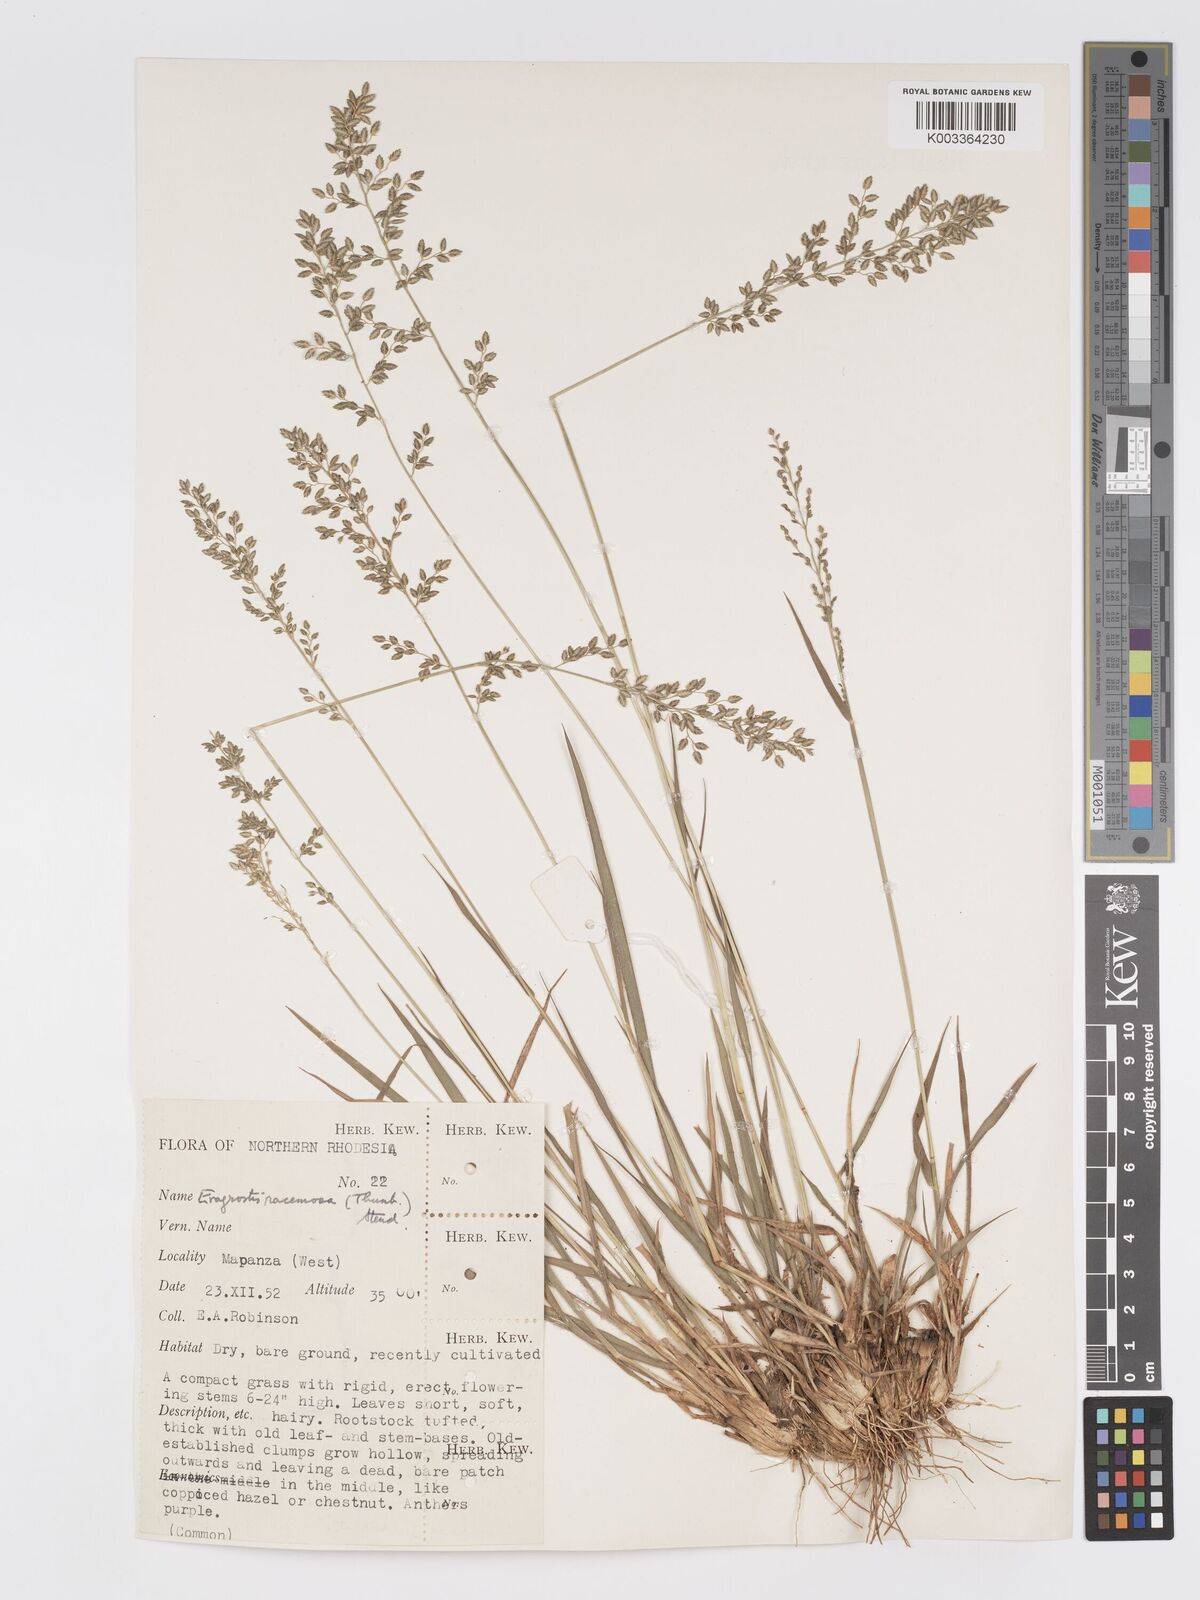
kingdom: Plantae
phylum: Tracheophyta
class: Liliopsida
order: Poales
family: Poaceae
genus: Eragrostis
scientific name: Eragrostis racemosa
